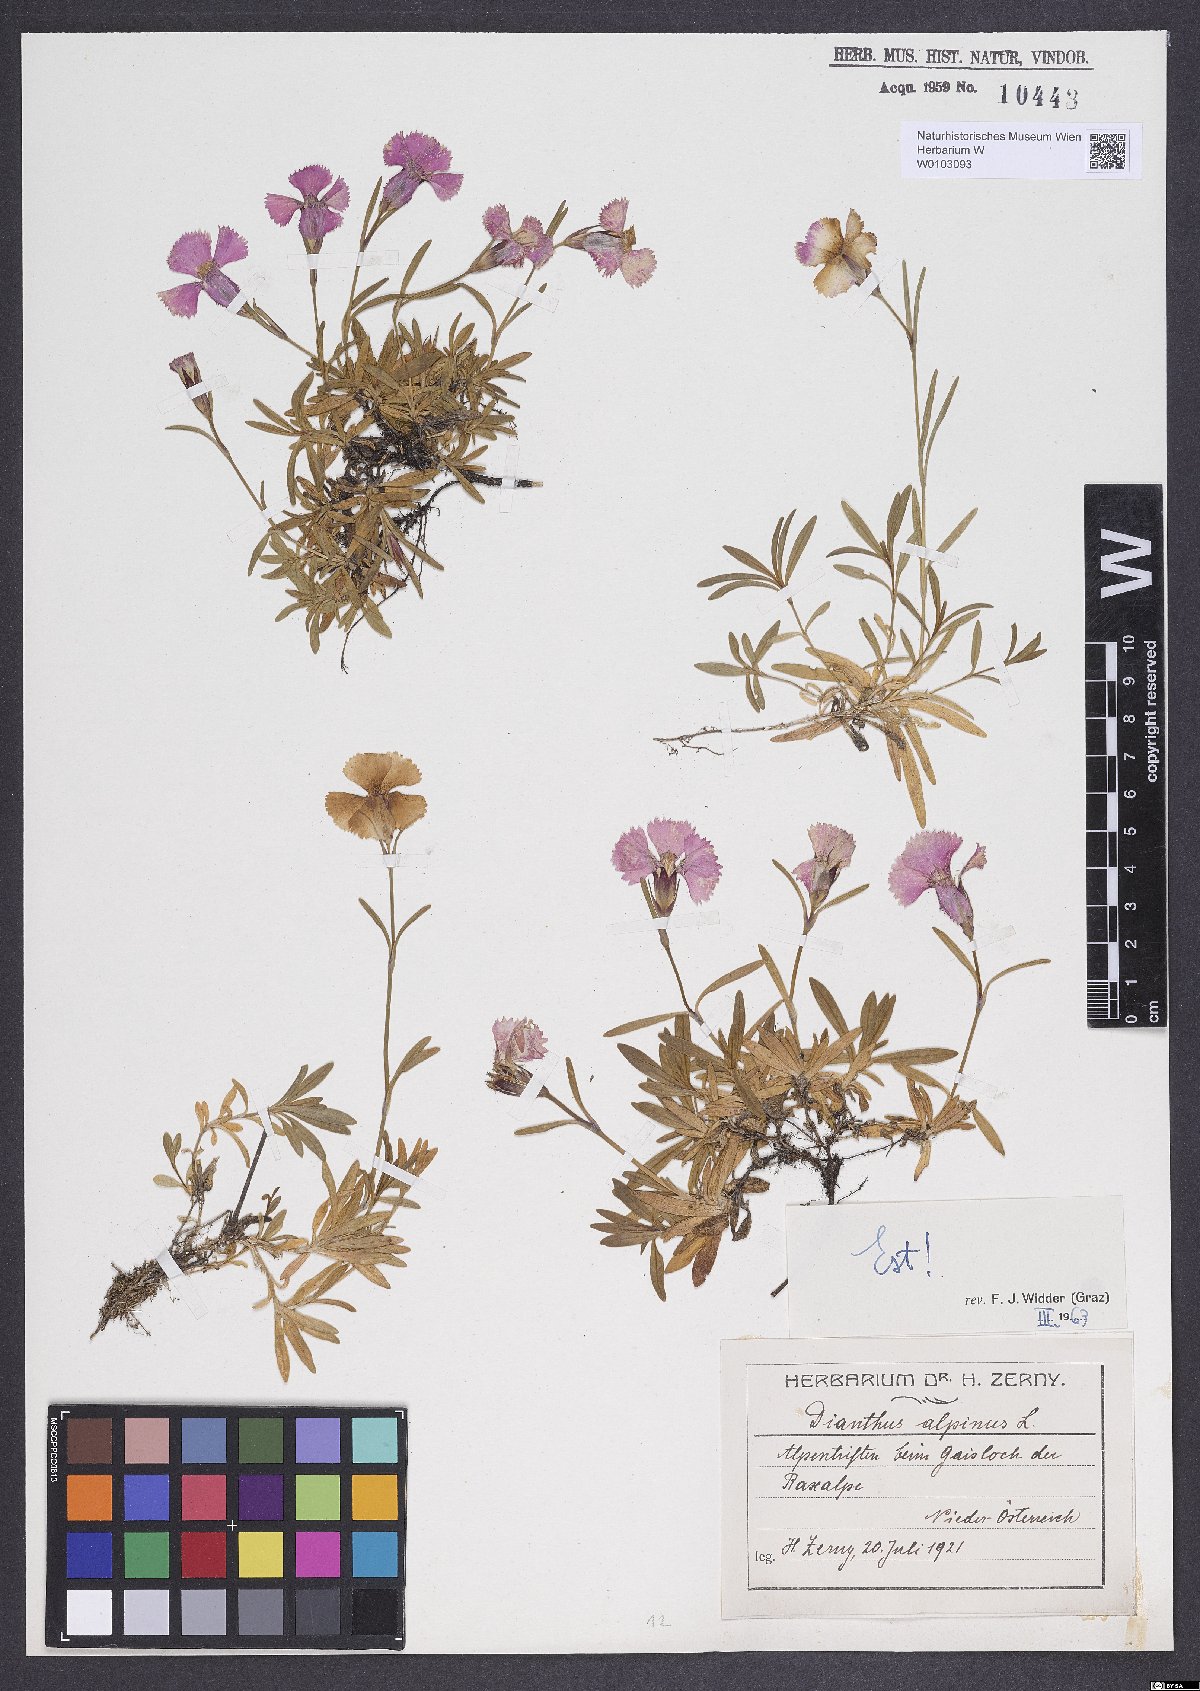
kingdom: Plantae
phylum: Tracheophyta
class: Magnoliopsida
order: Caryophyllales
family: Caryophyllaceae
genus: Dianthus
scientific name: Dianthus alpinus
